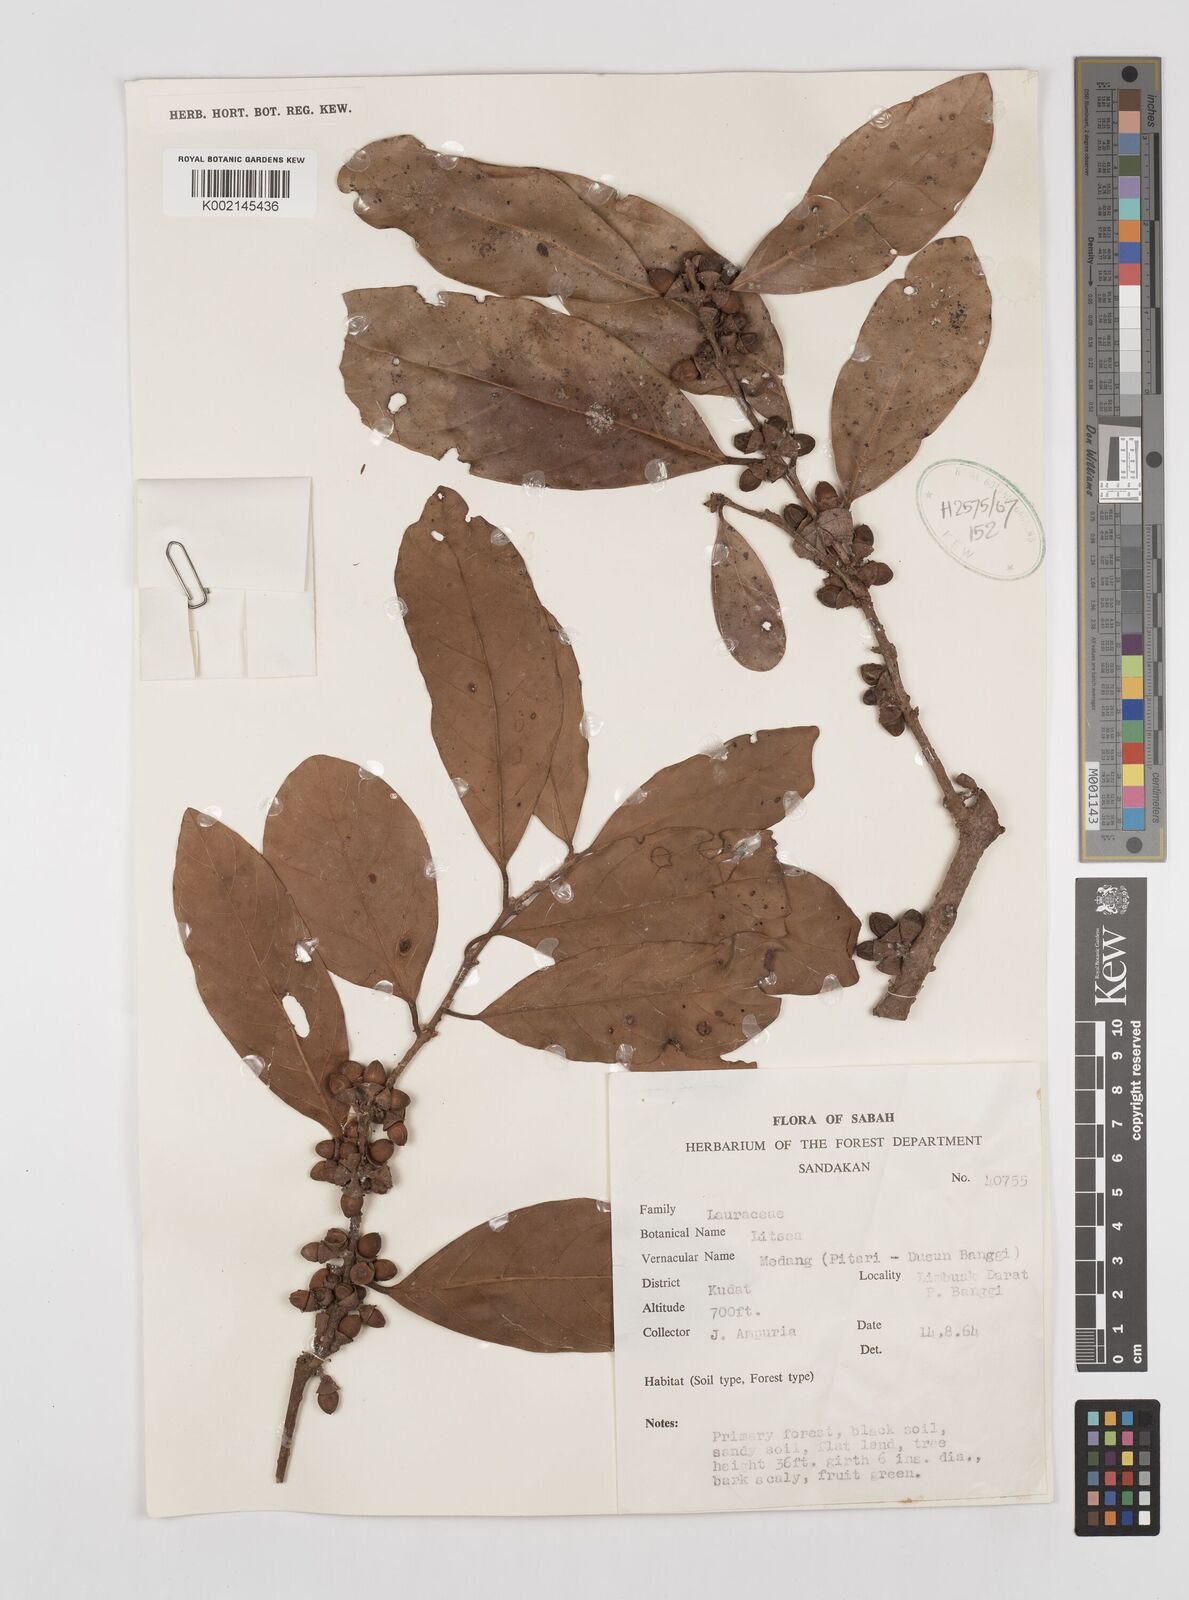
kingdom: Plantae
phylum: Tracheophyta
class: Magnoliopsida
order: Laurales
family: Lauraceae
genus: Litsea
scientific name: Litsea
